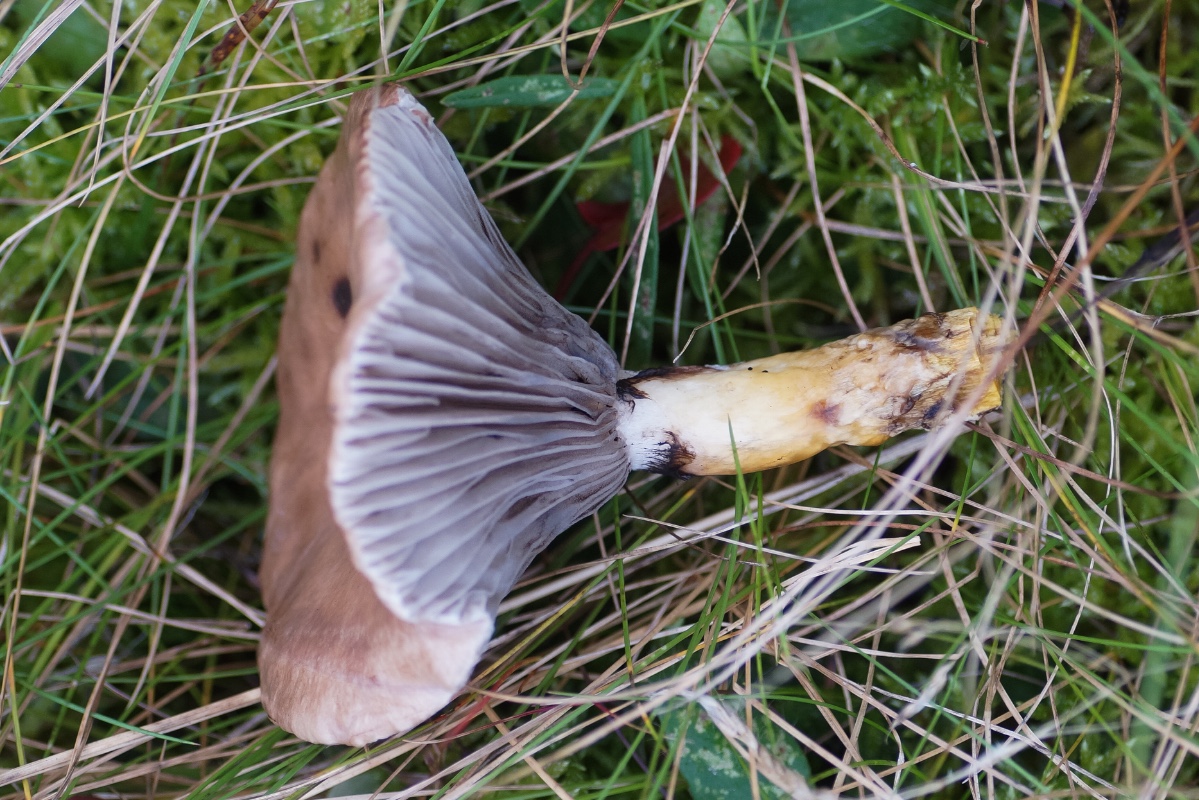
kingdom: Fungi
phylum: Basidiomycota
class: Agaricomycetes
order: Boletales
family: Gomphidiaceae
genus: Gomphidius
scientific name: Gomphidius glutinosus
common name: grå slimslør
